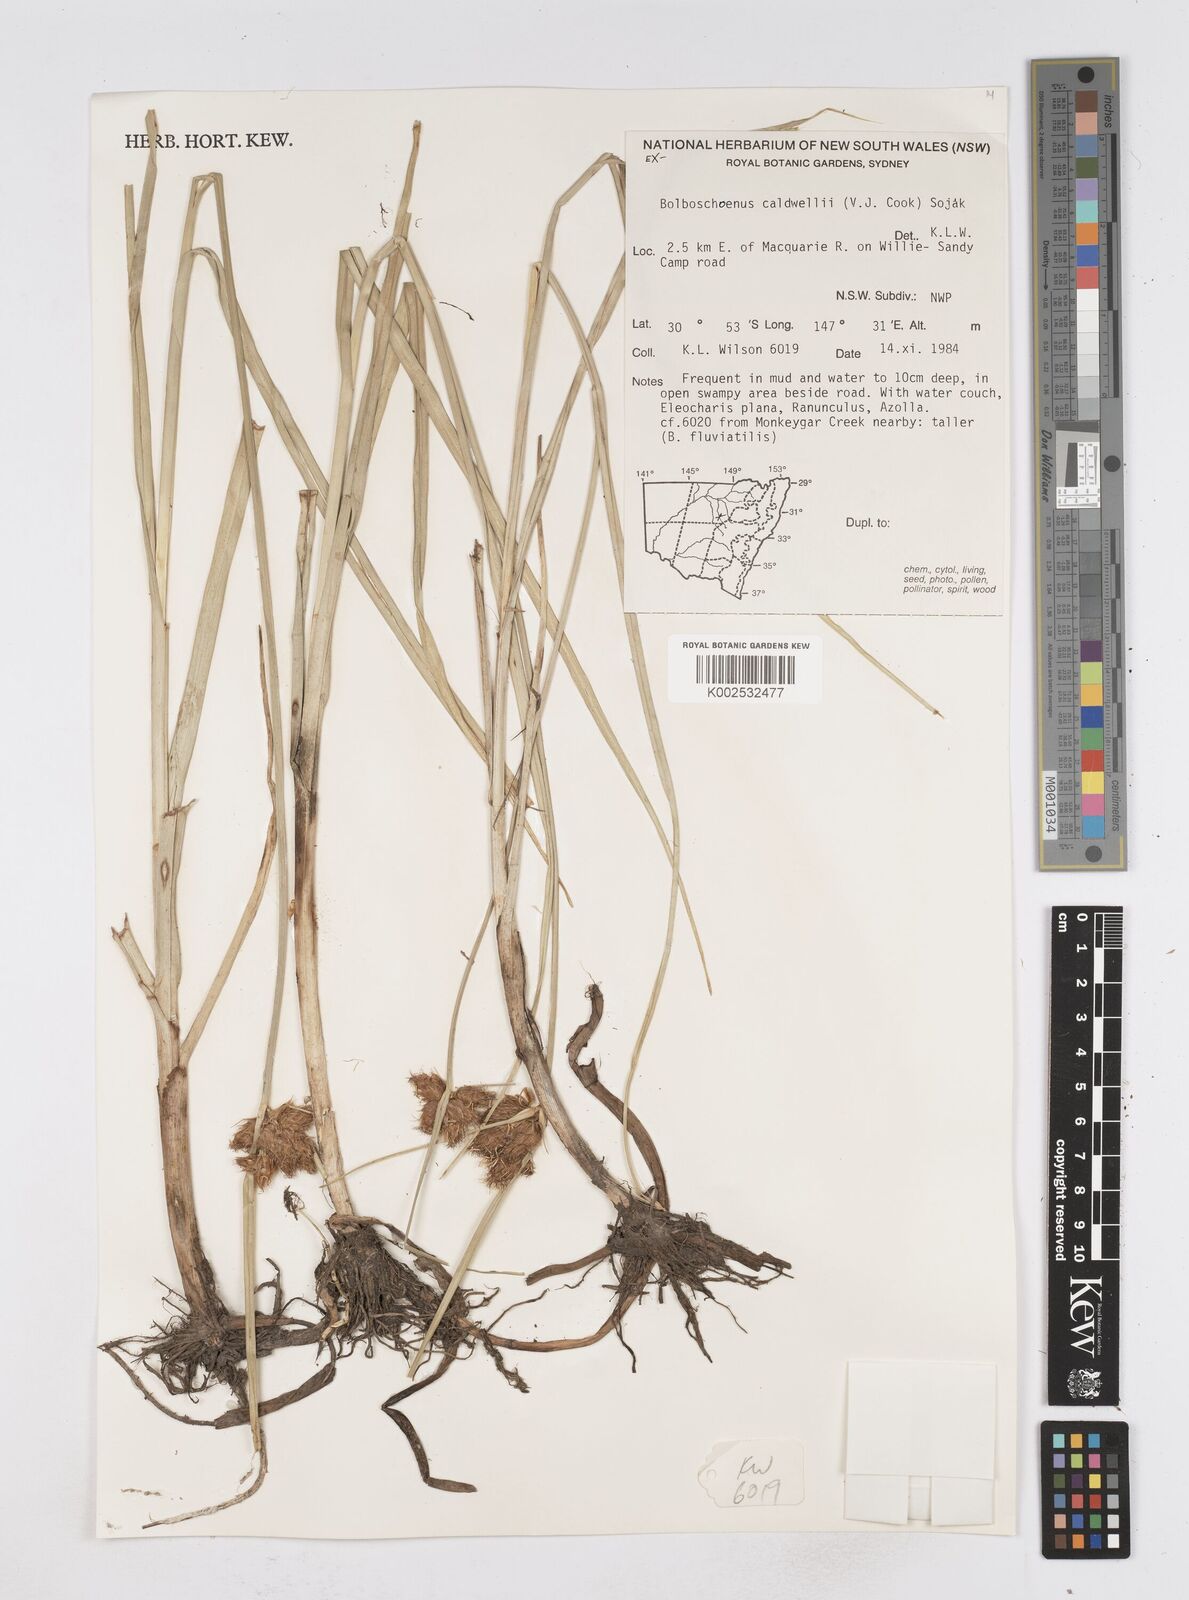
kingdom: Plantae
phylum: Tracheophyta
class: Liliopsida
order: Poales
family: Cyperaceae
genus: Bolboschoenus
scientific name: Bolboschoenus caldwellii
